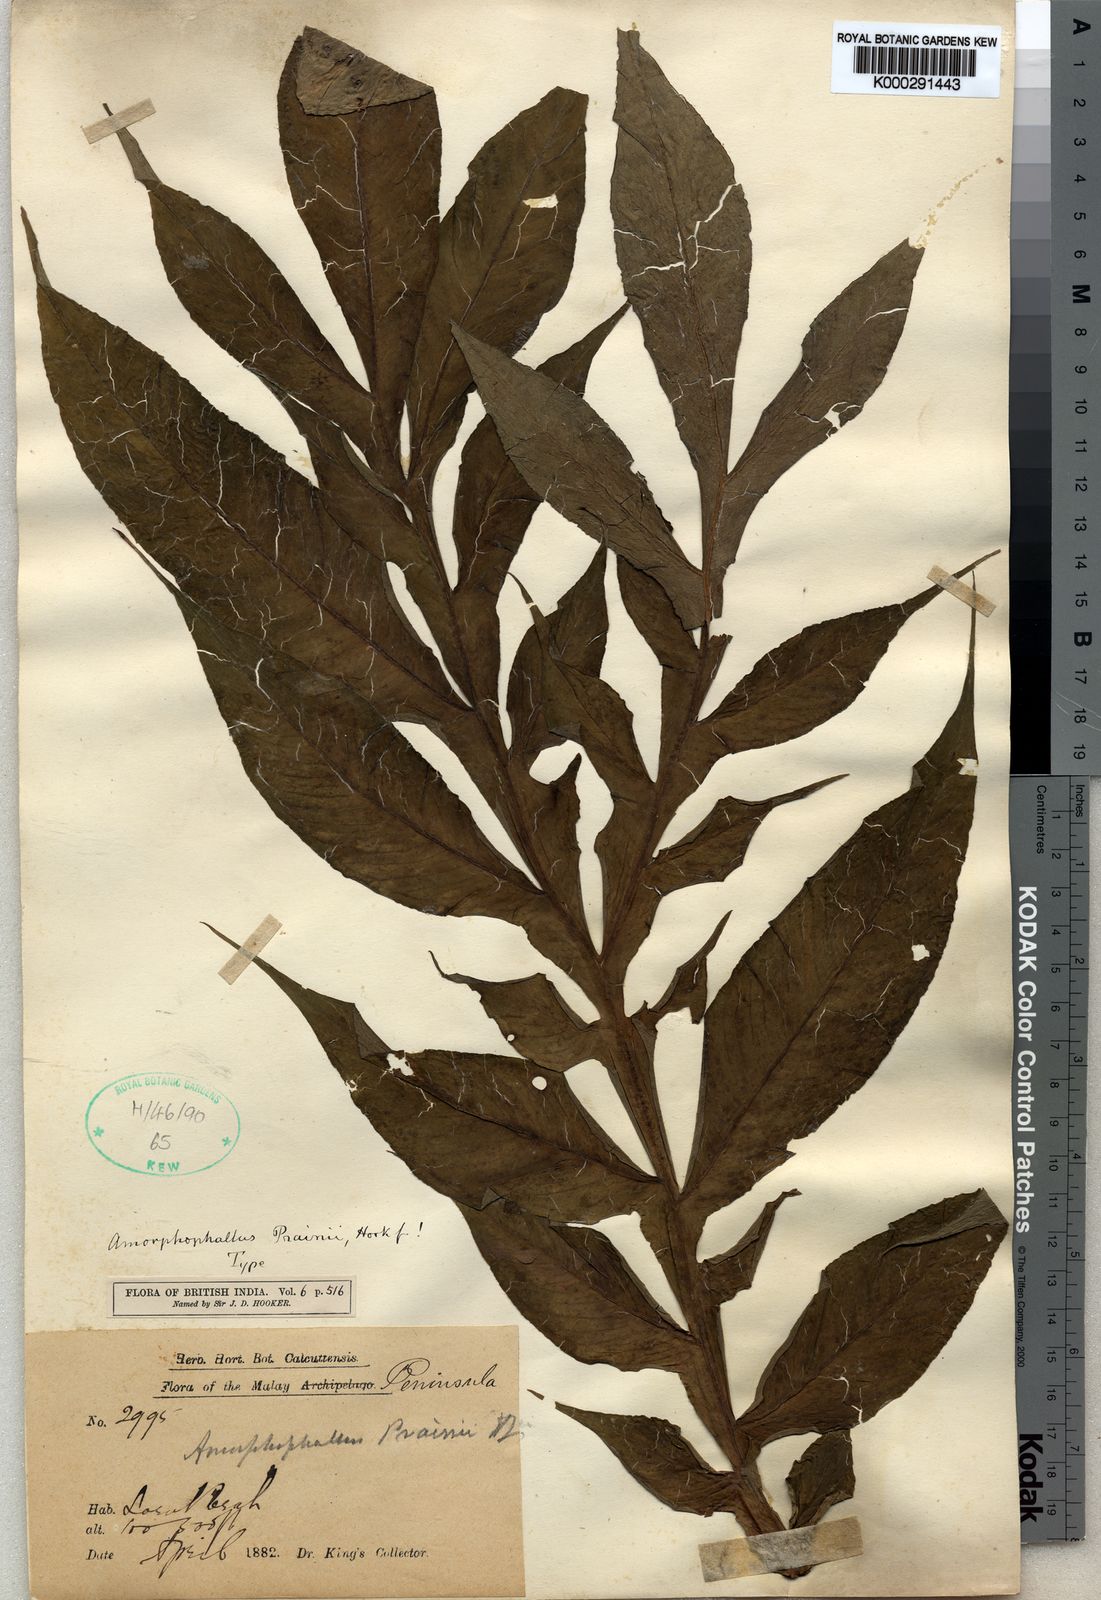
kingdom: Plantae
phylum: Tracheophyta
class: Liliopsida
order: Alismatales
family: Araceae
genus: Amorphophallus
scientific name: Amorphophallus prainii
